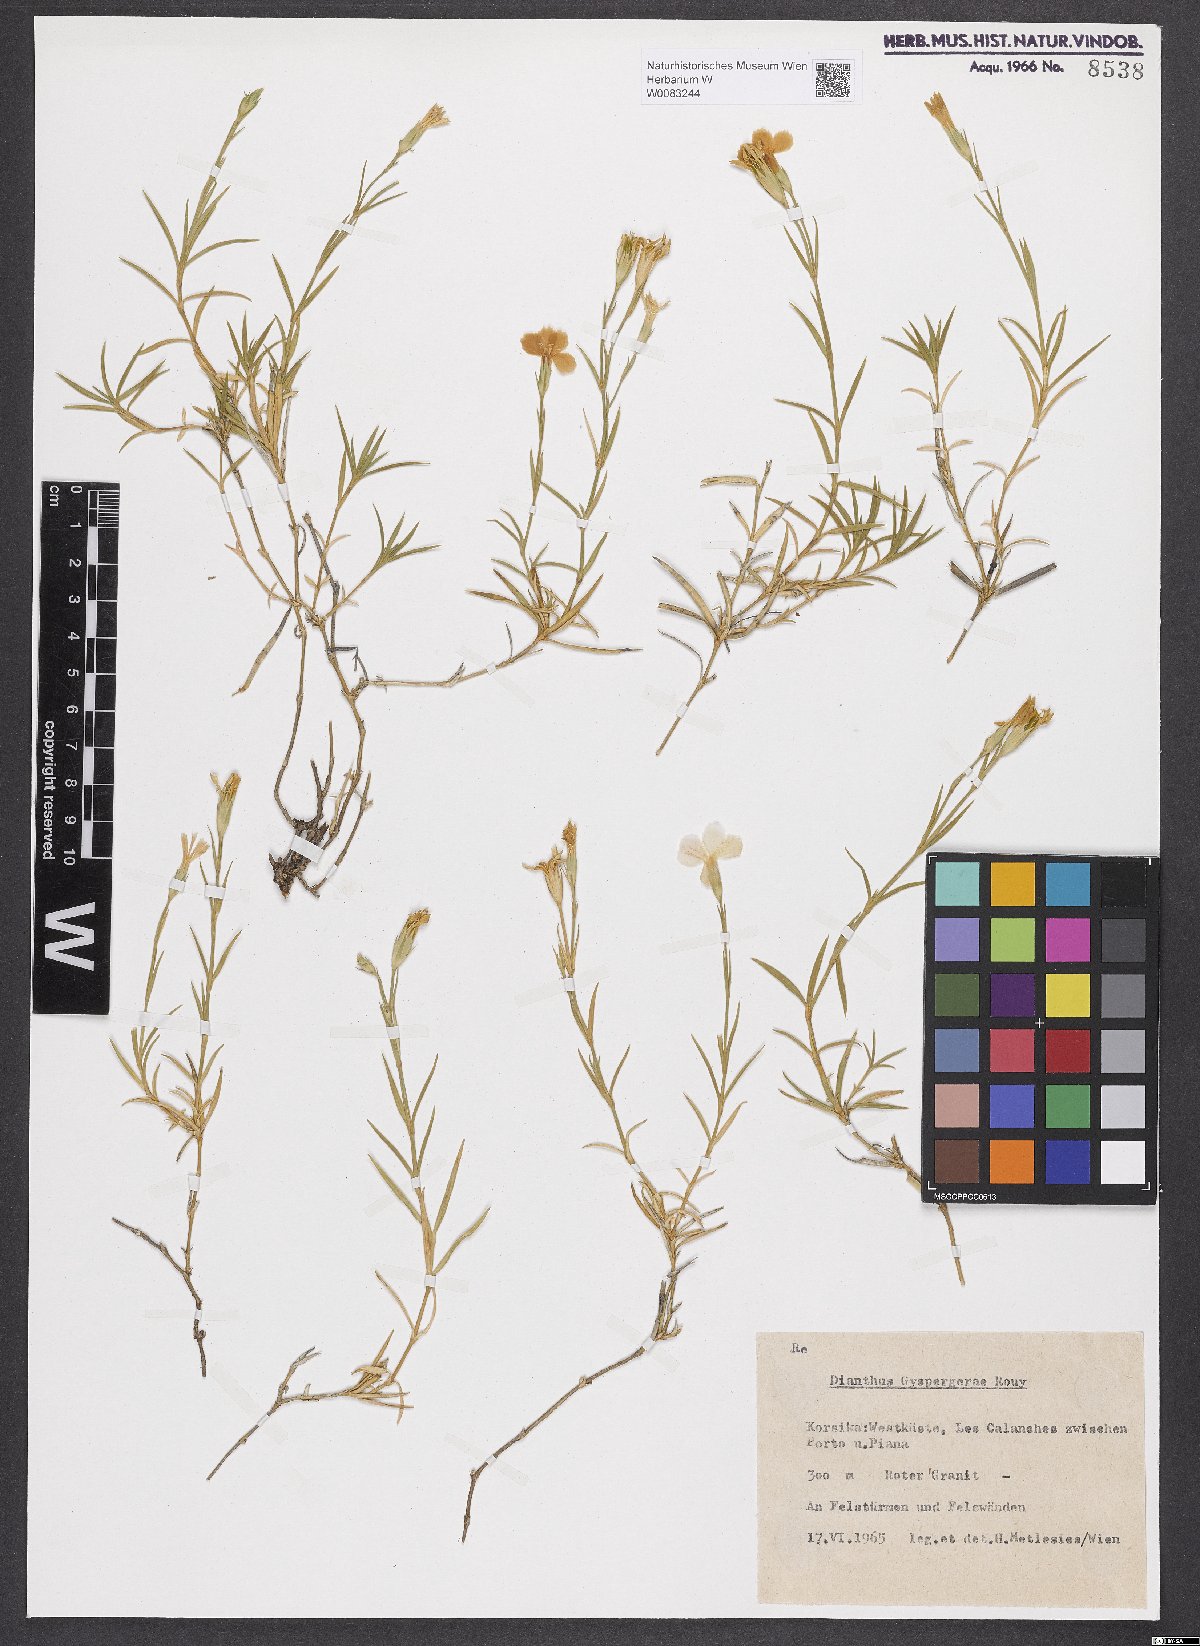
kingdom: Plantae
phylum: Tracheophyta
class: Magnoliopsida
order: Caryophyllales
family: Caryophyllaceae
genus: Dianthus
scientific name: Dianthus furcatus
